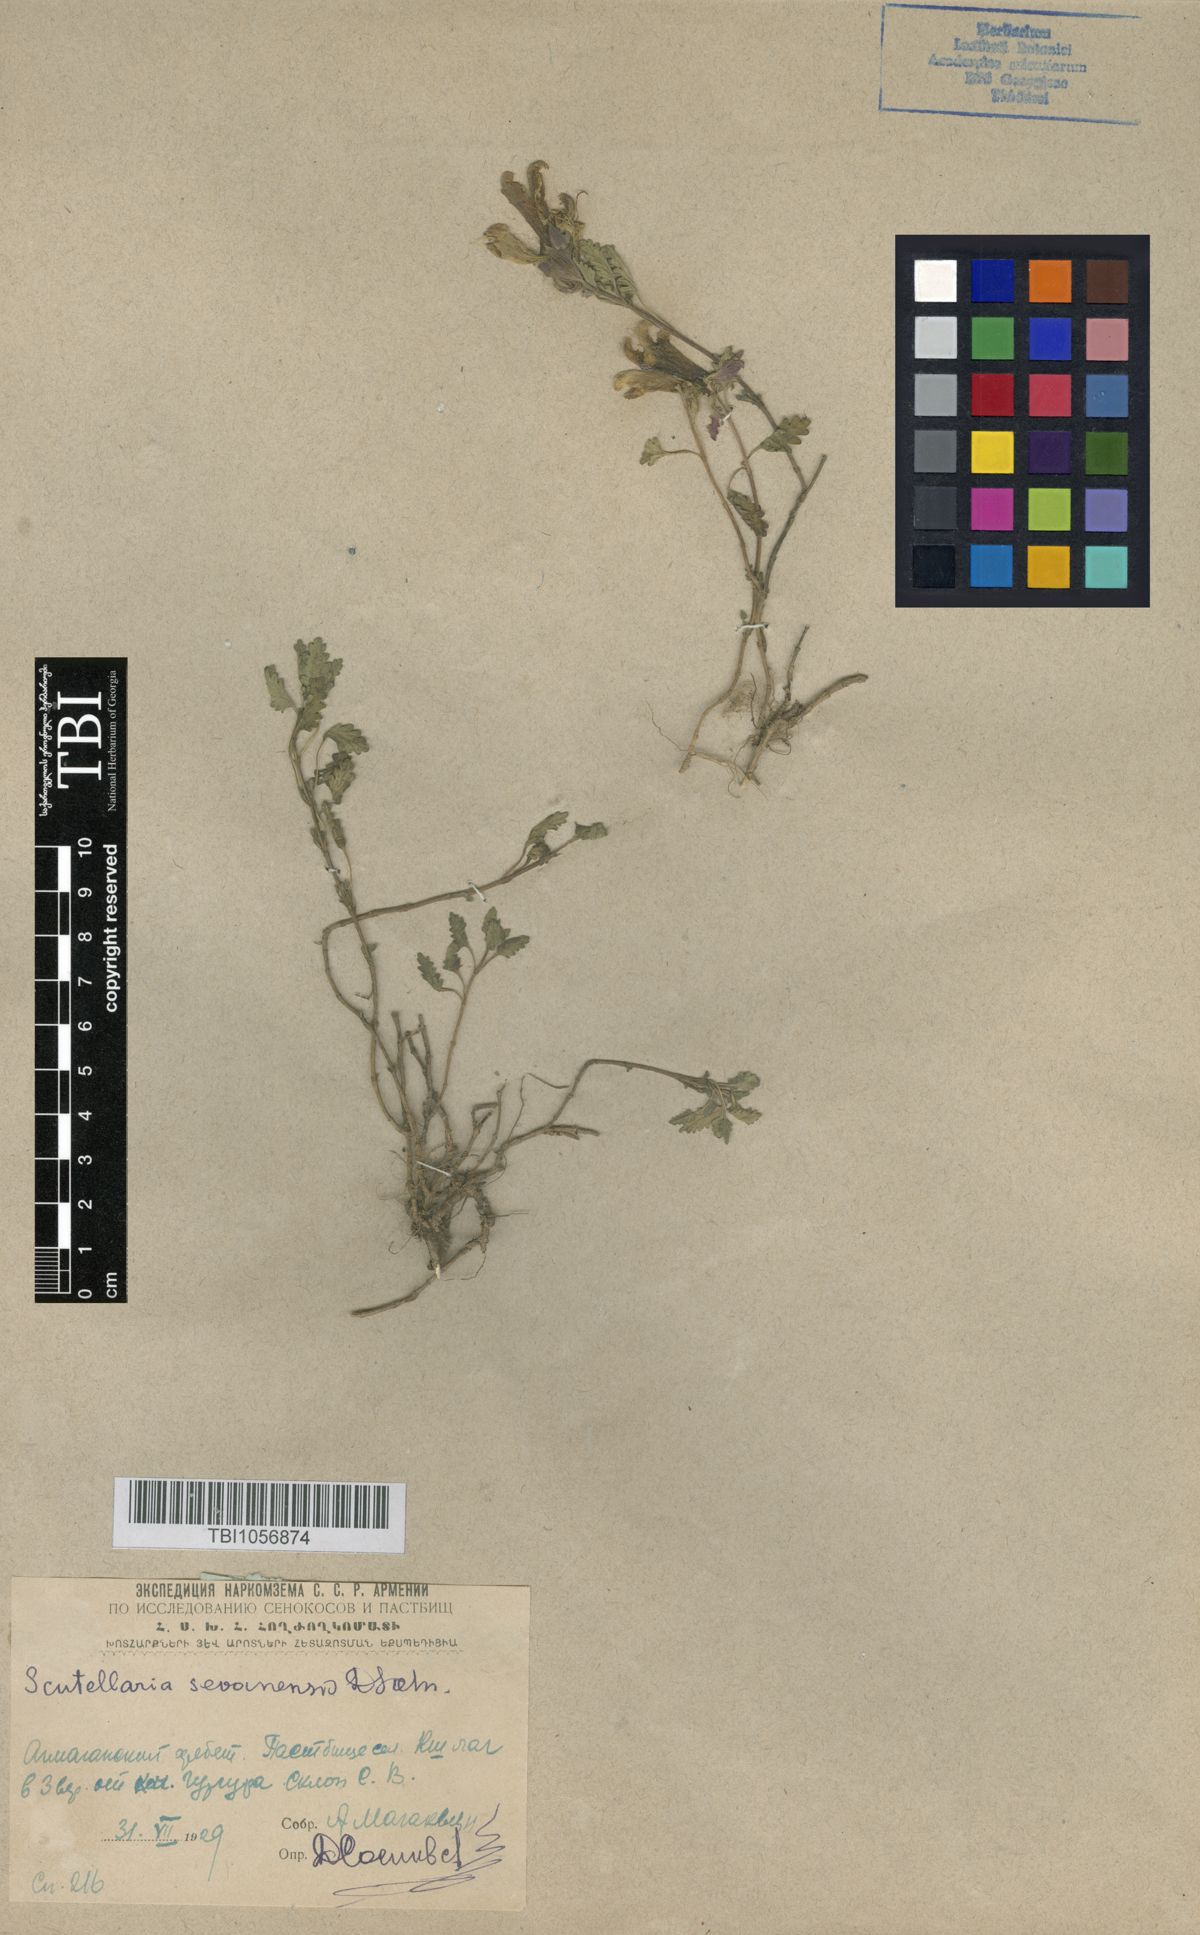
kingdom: Plantae
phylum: Tracheophyta
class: Magnoliopsida
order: Lamiales
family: Lamiaceae
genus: Scutellaria
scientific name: Scutellaria sevanensis
